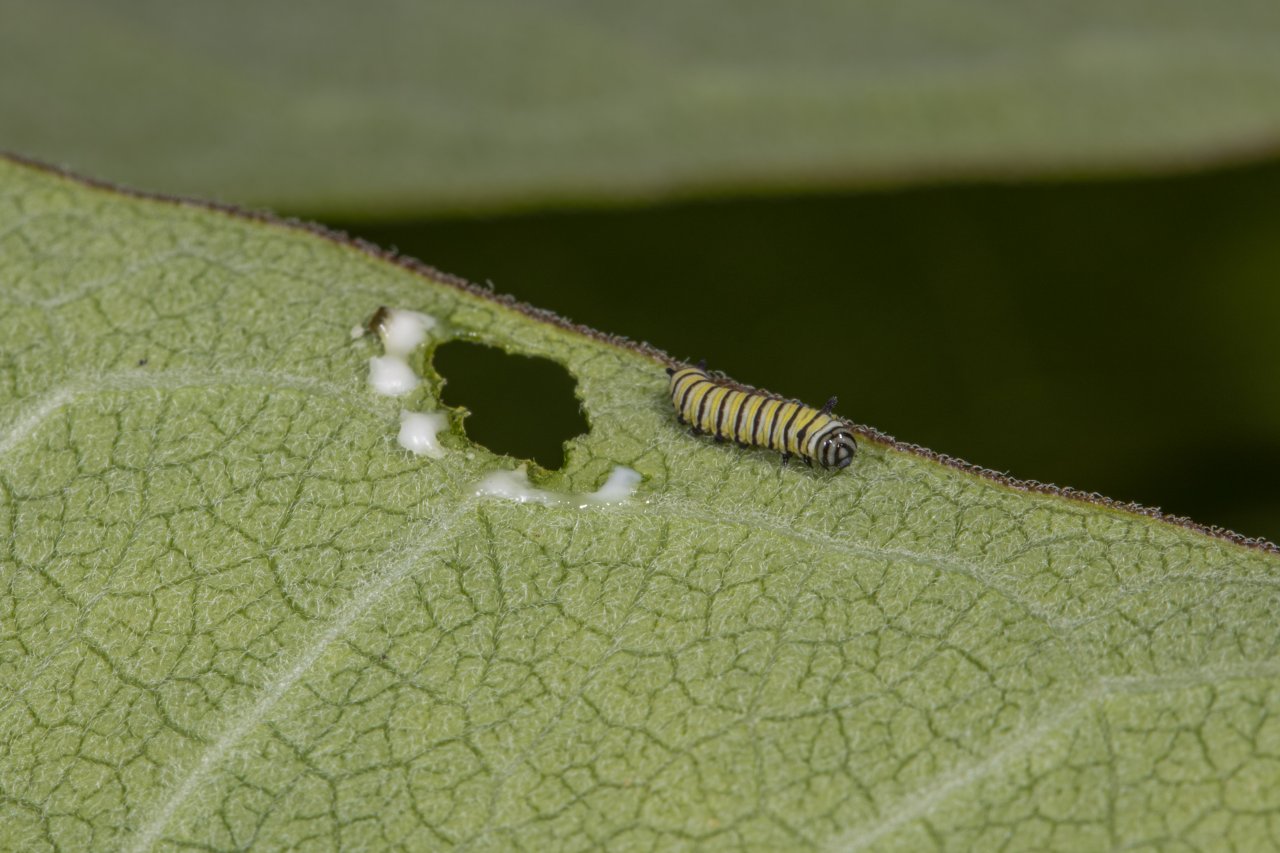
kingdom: Animalia
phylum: Arthropoda
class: Insecta
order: Lepidoptera
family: Nymphalidae
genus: Danaus
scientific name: Danaus plexippus
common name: Monarch
